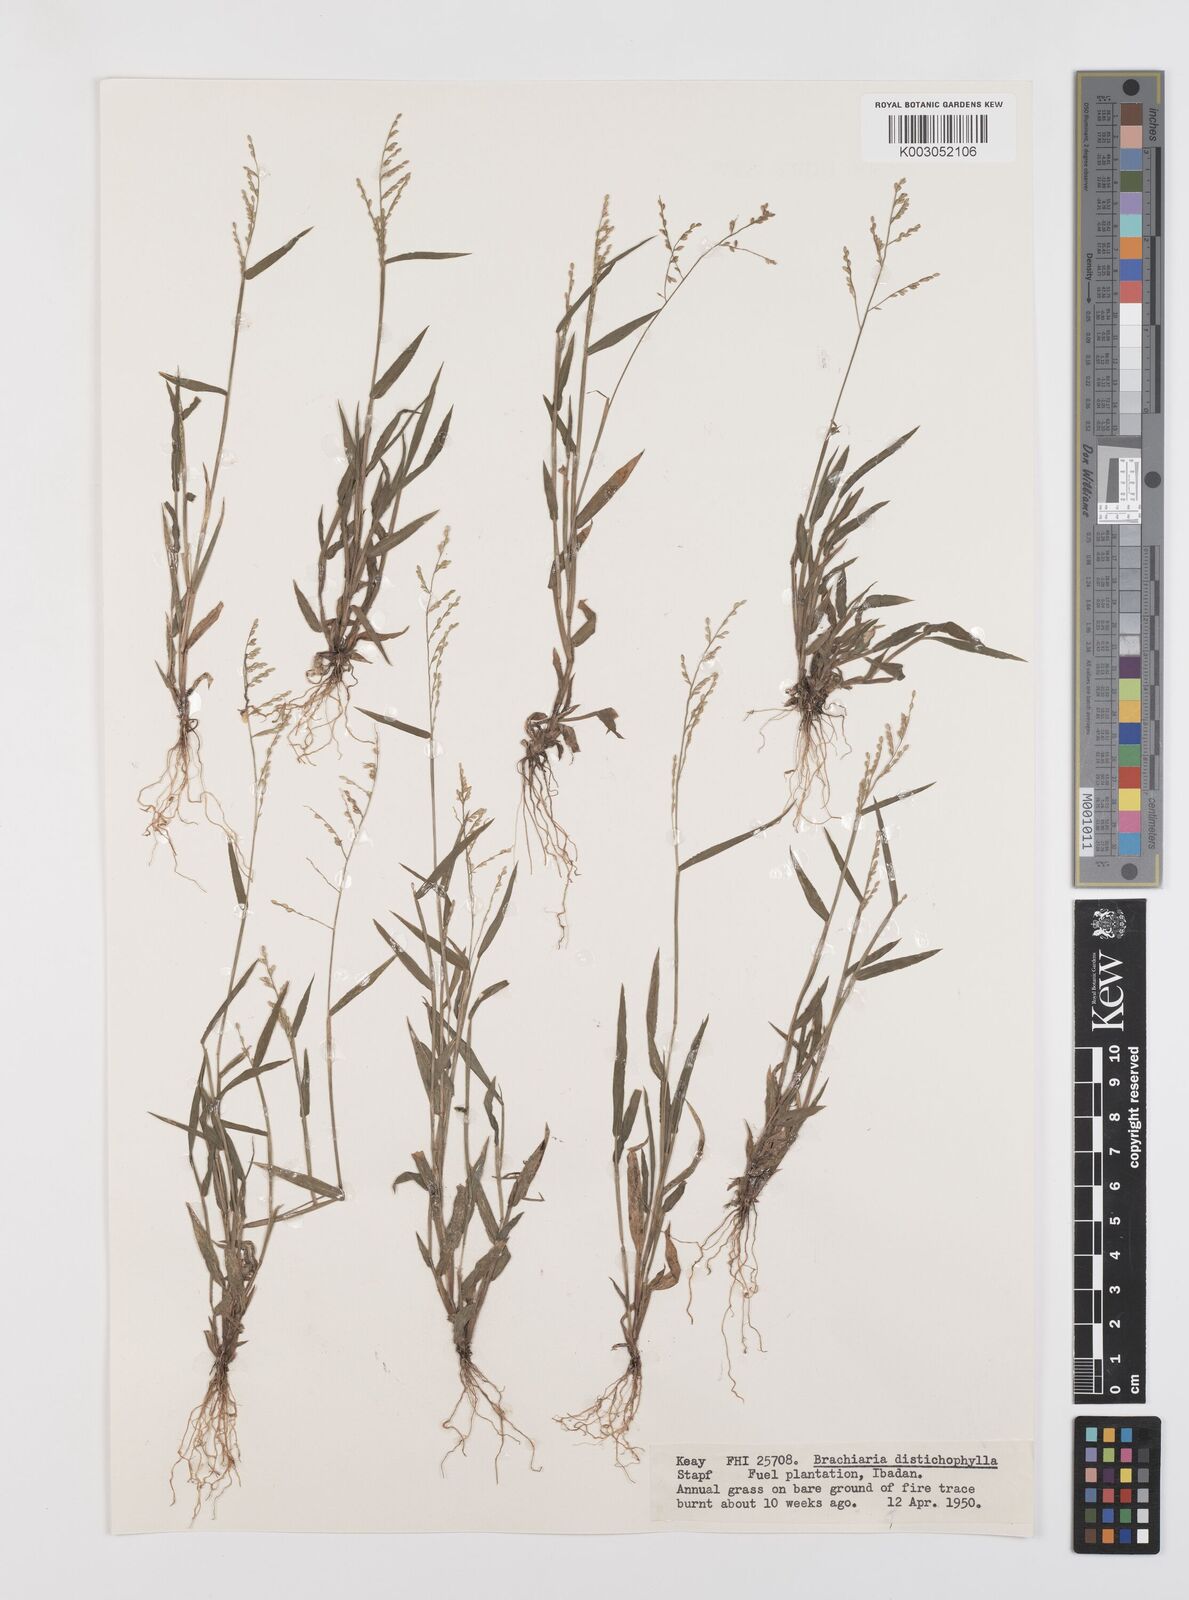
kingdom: Plantae
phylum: Tracheophyta
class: Liliopsida
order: Poales
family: Poaceae
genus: Urochloa
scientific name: Urochloa villosa
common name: Hairy signalgrass
